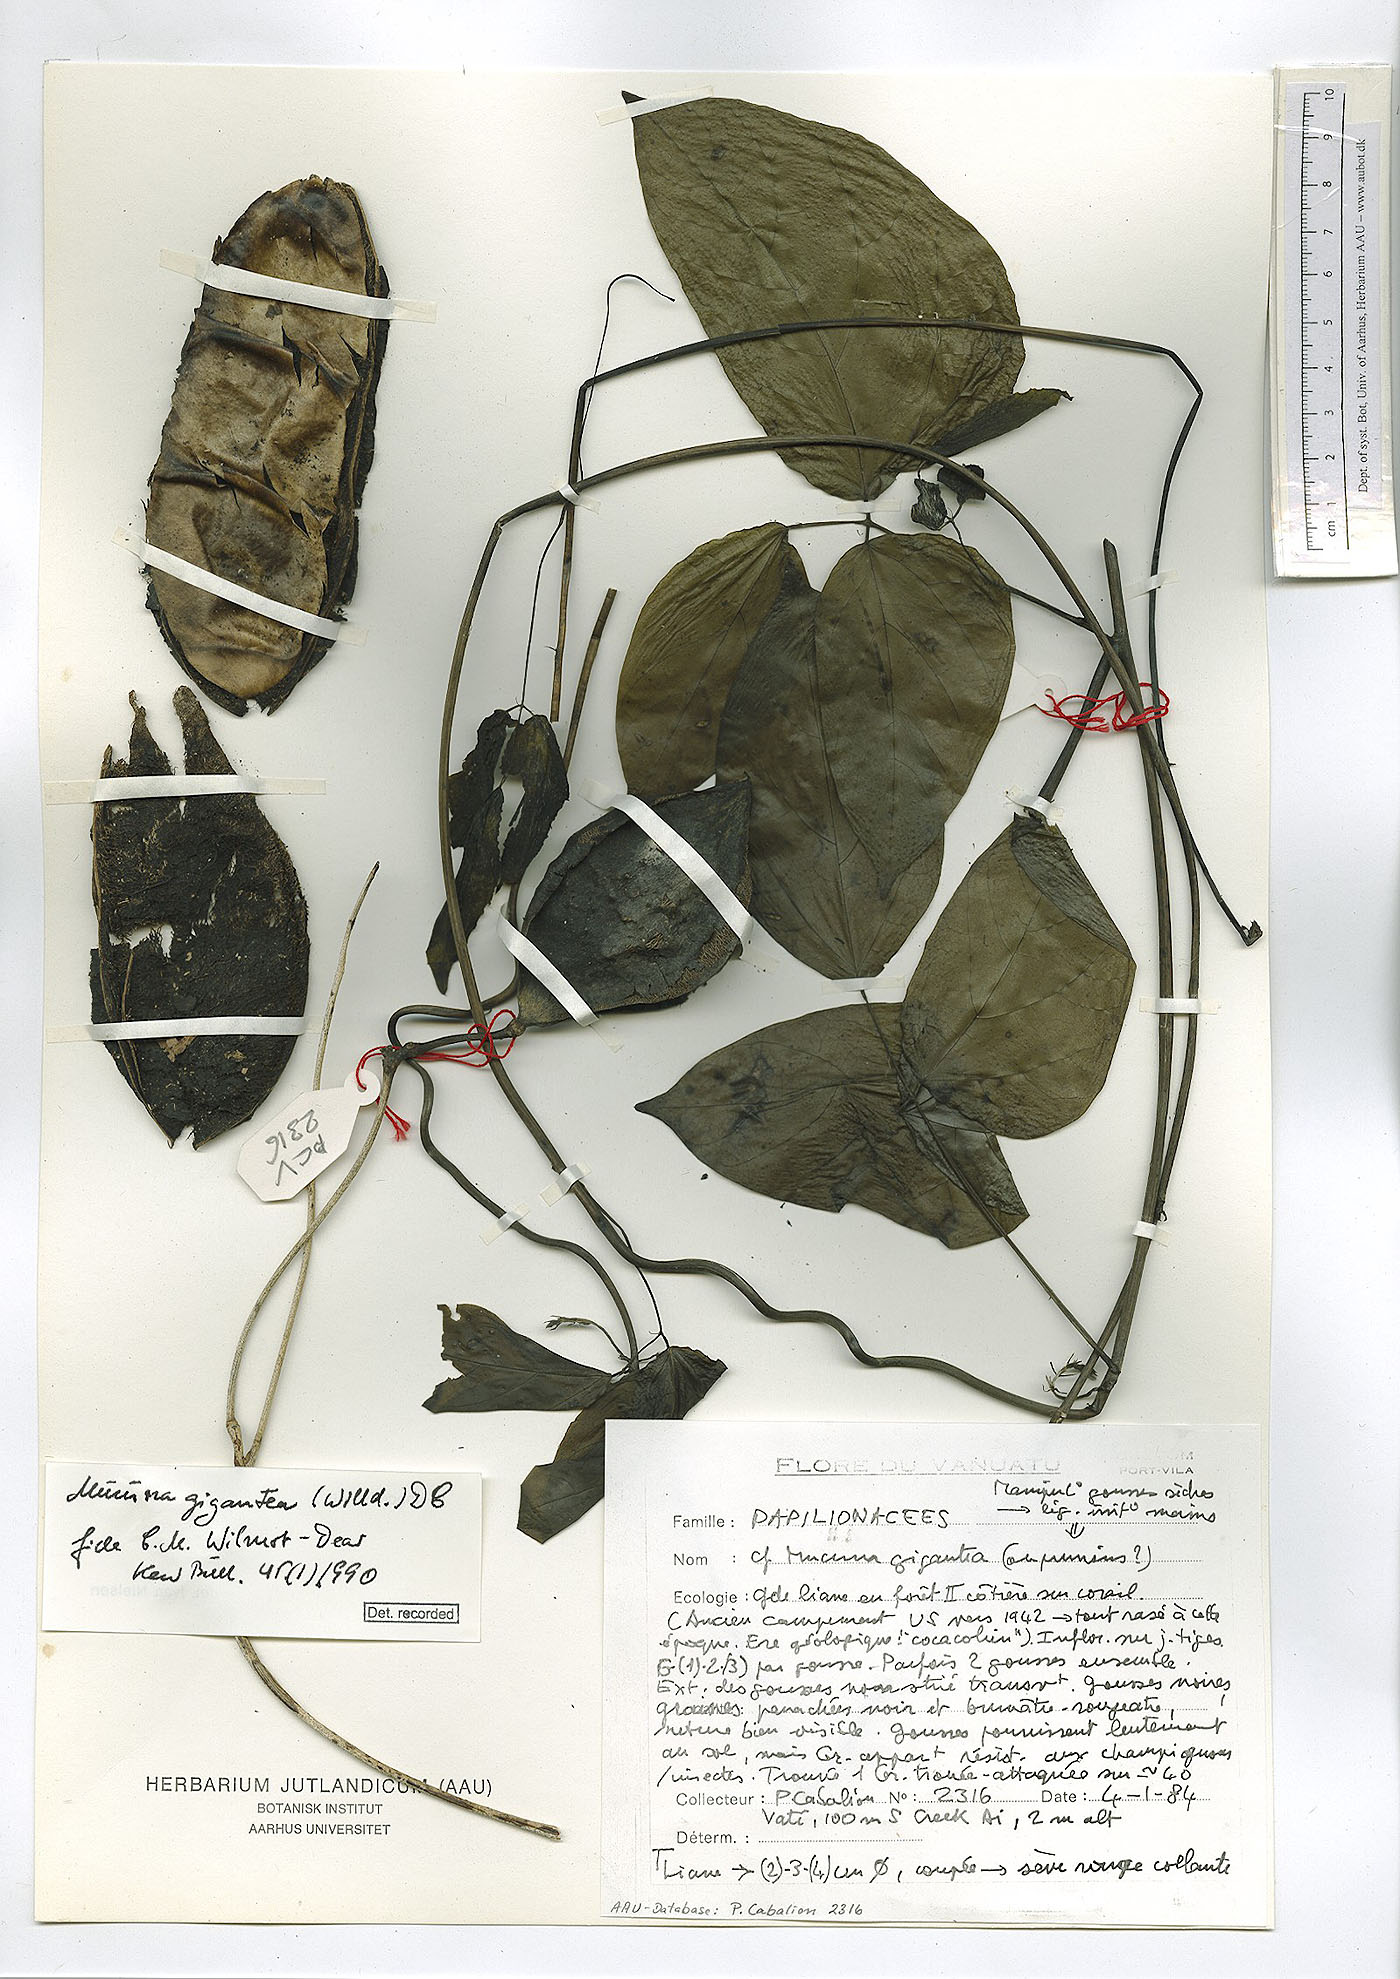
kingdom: Plantae
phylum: Tracheophyta
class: Magnoliopsida
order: Fabales
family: Fabaceae
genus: Mucuna
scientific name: Mucuna gigantea
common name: Black-bean
